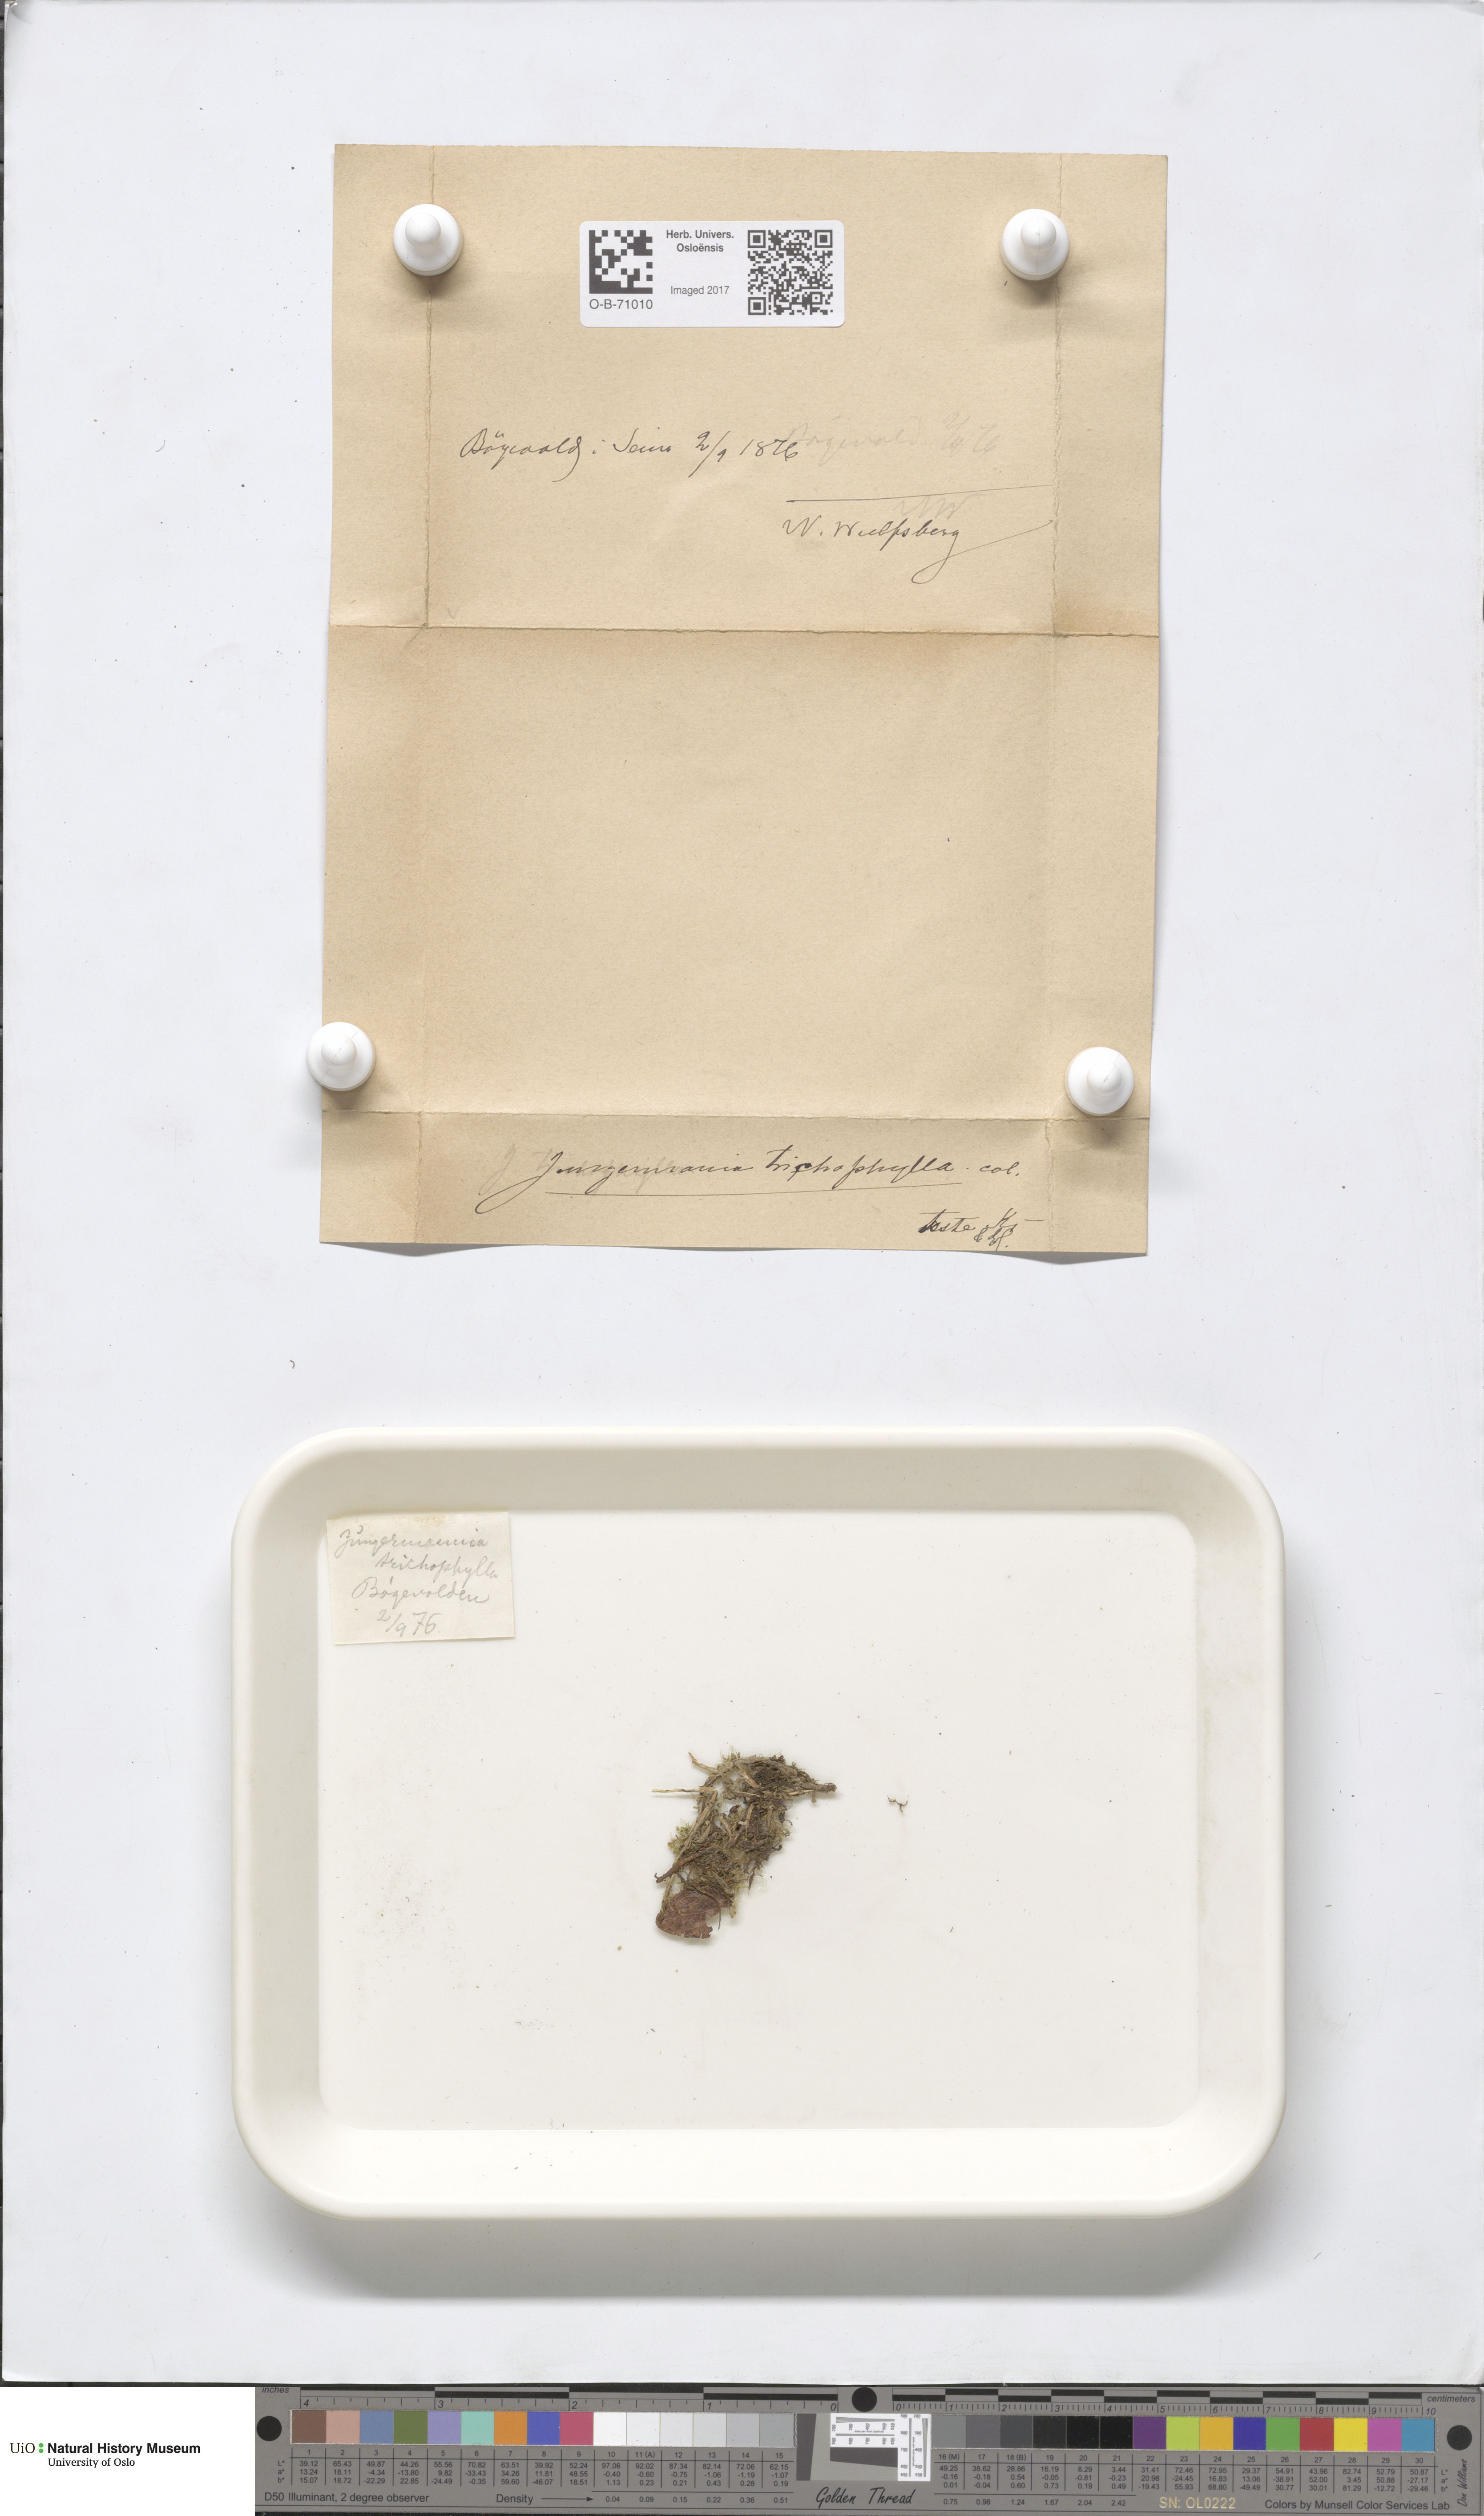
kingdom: Plantae
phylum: Marchantiophyta
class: Jungermanniopsida
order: Jungermanniales
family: Blepharostomataceae
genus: Blepharostoma
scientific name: Blepharostoma trichophyllum
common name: Hairy threadwort
